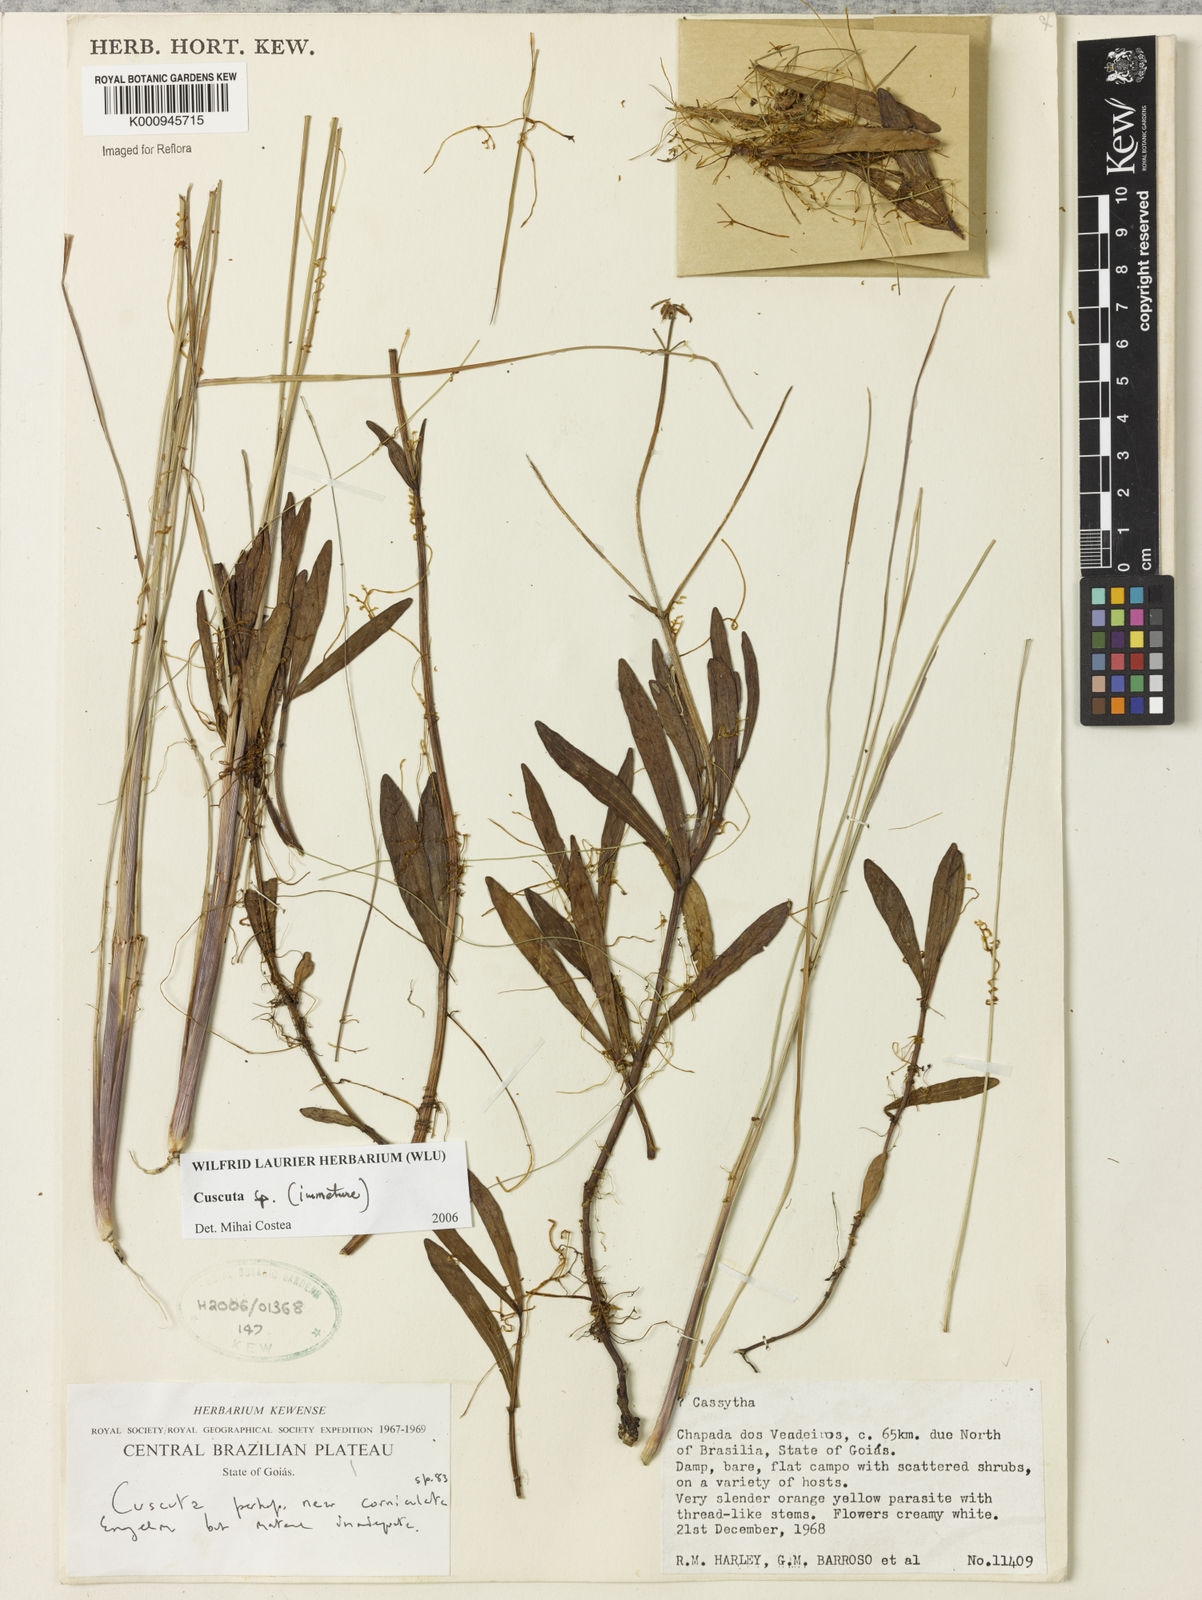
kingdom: Plantae
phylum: Tracheophyta
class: Magnoliopsida
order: Solanales
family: Convolvulaceae
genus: Cuscuta
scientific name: Cuscuta
